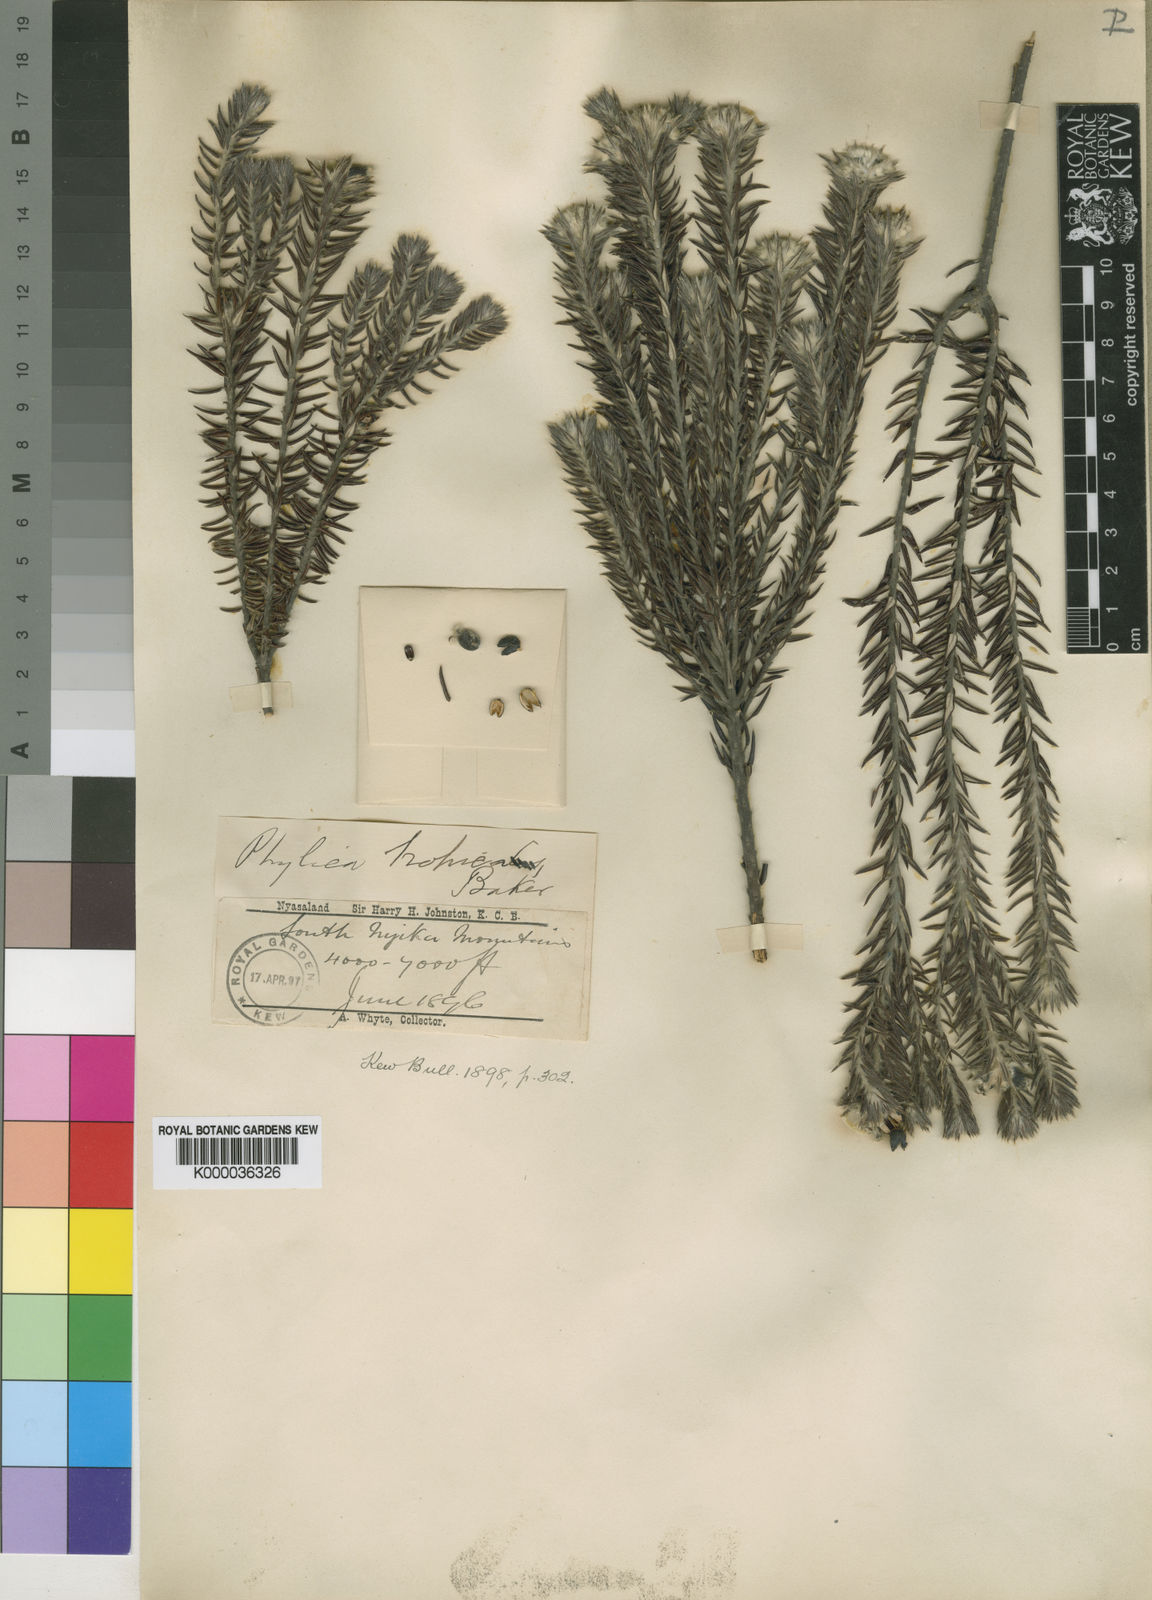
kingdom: Plantae
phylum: Tracheophyta
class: Magnoliopsida
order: Rosales
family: Rhamnaceae
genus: Phylica
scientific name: Phylica emirnensis
